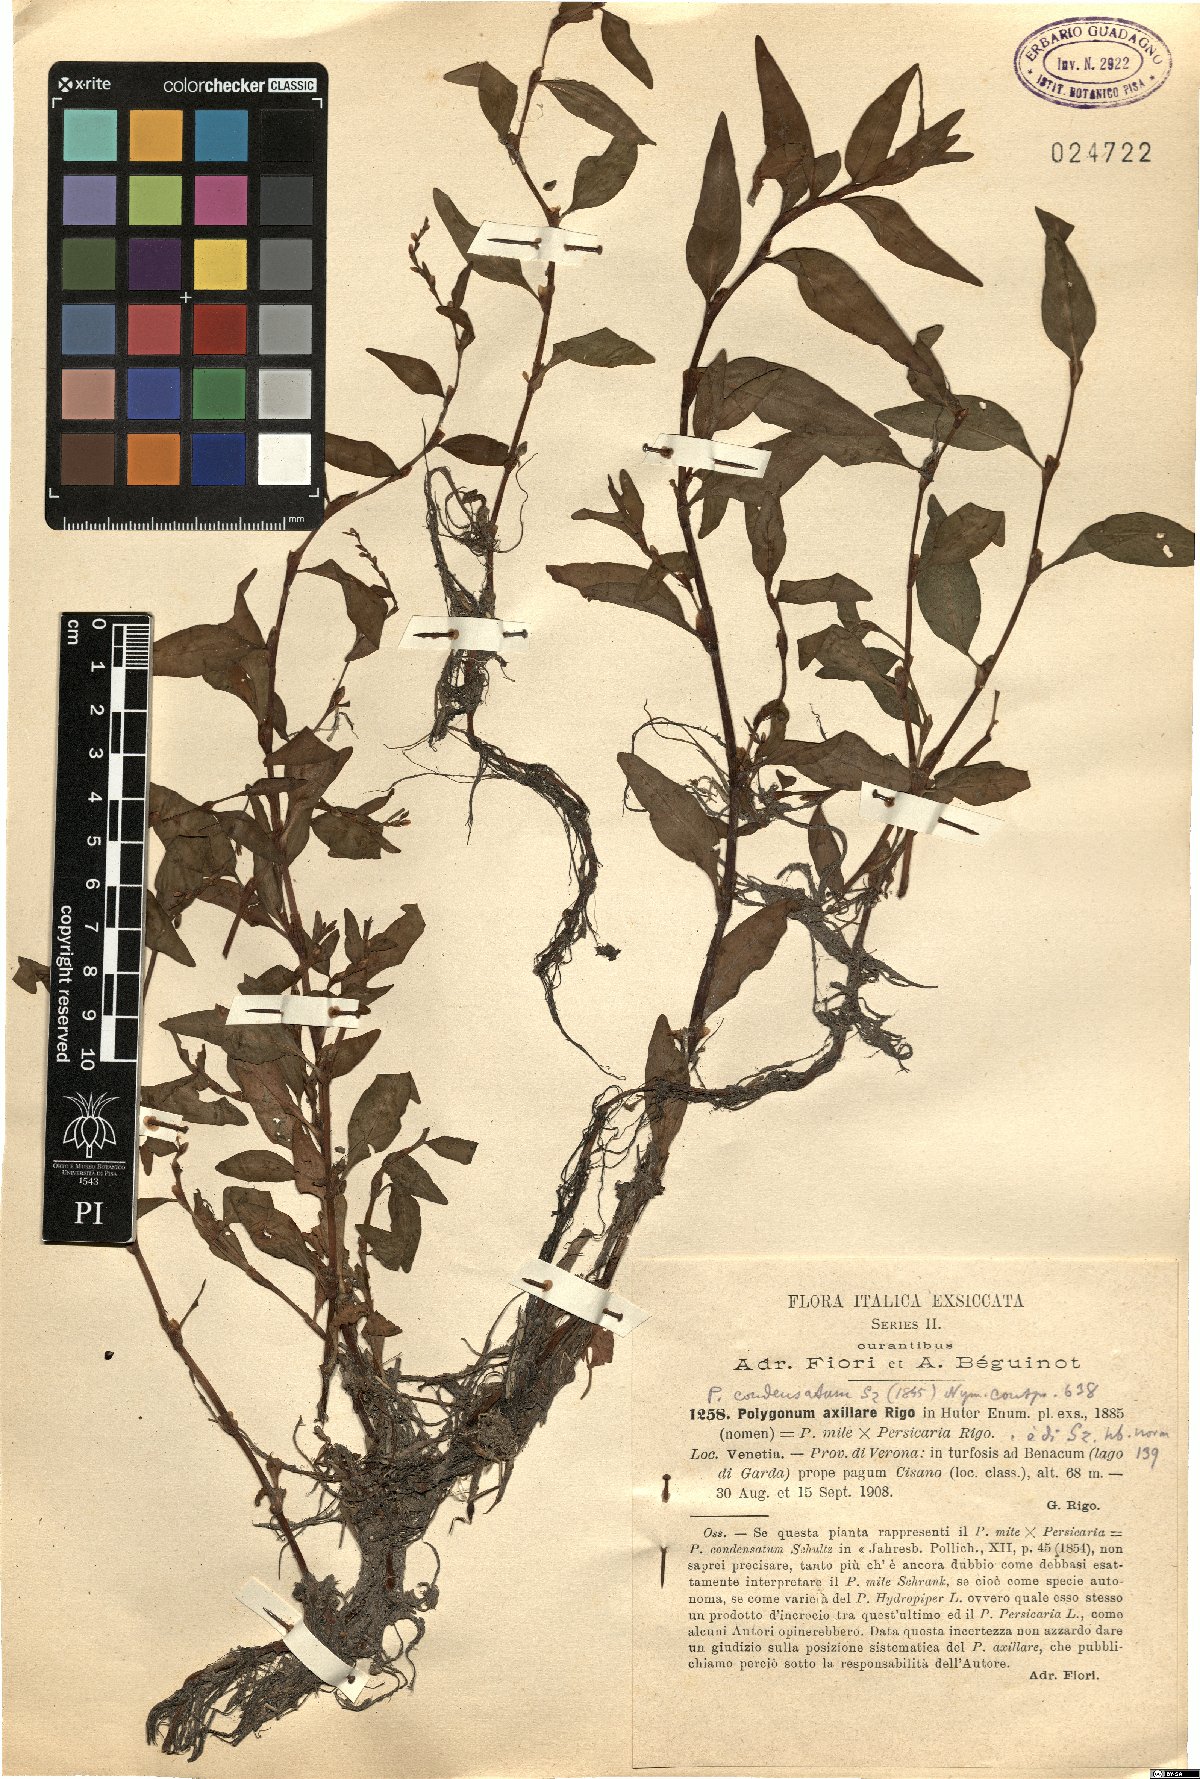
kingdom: Plantae
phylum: Tracheophyta
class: Magnoliopsida
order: Caryophyllales
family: Polygonaceae
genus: Persicaria
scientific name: Persicaria condensata
